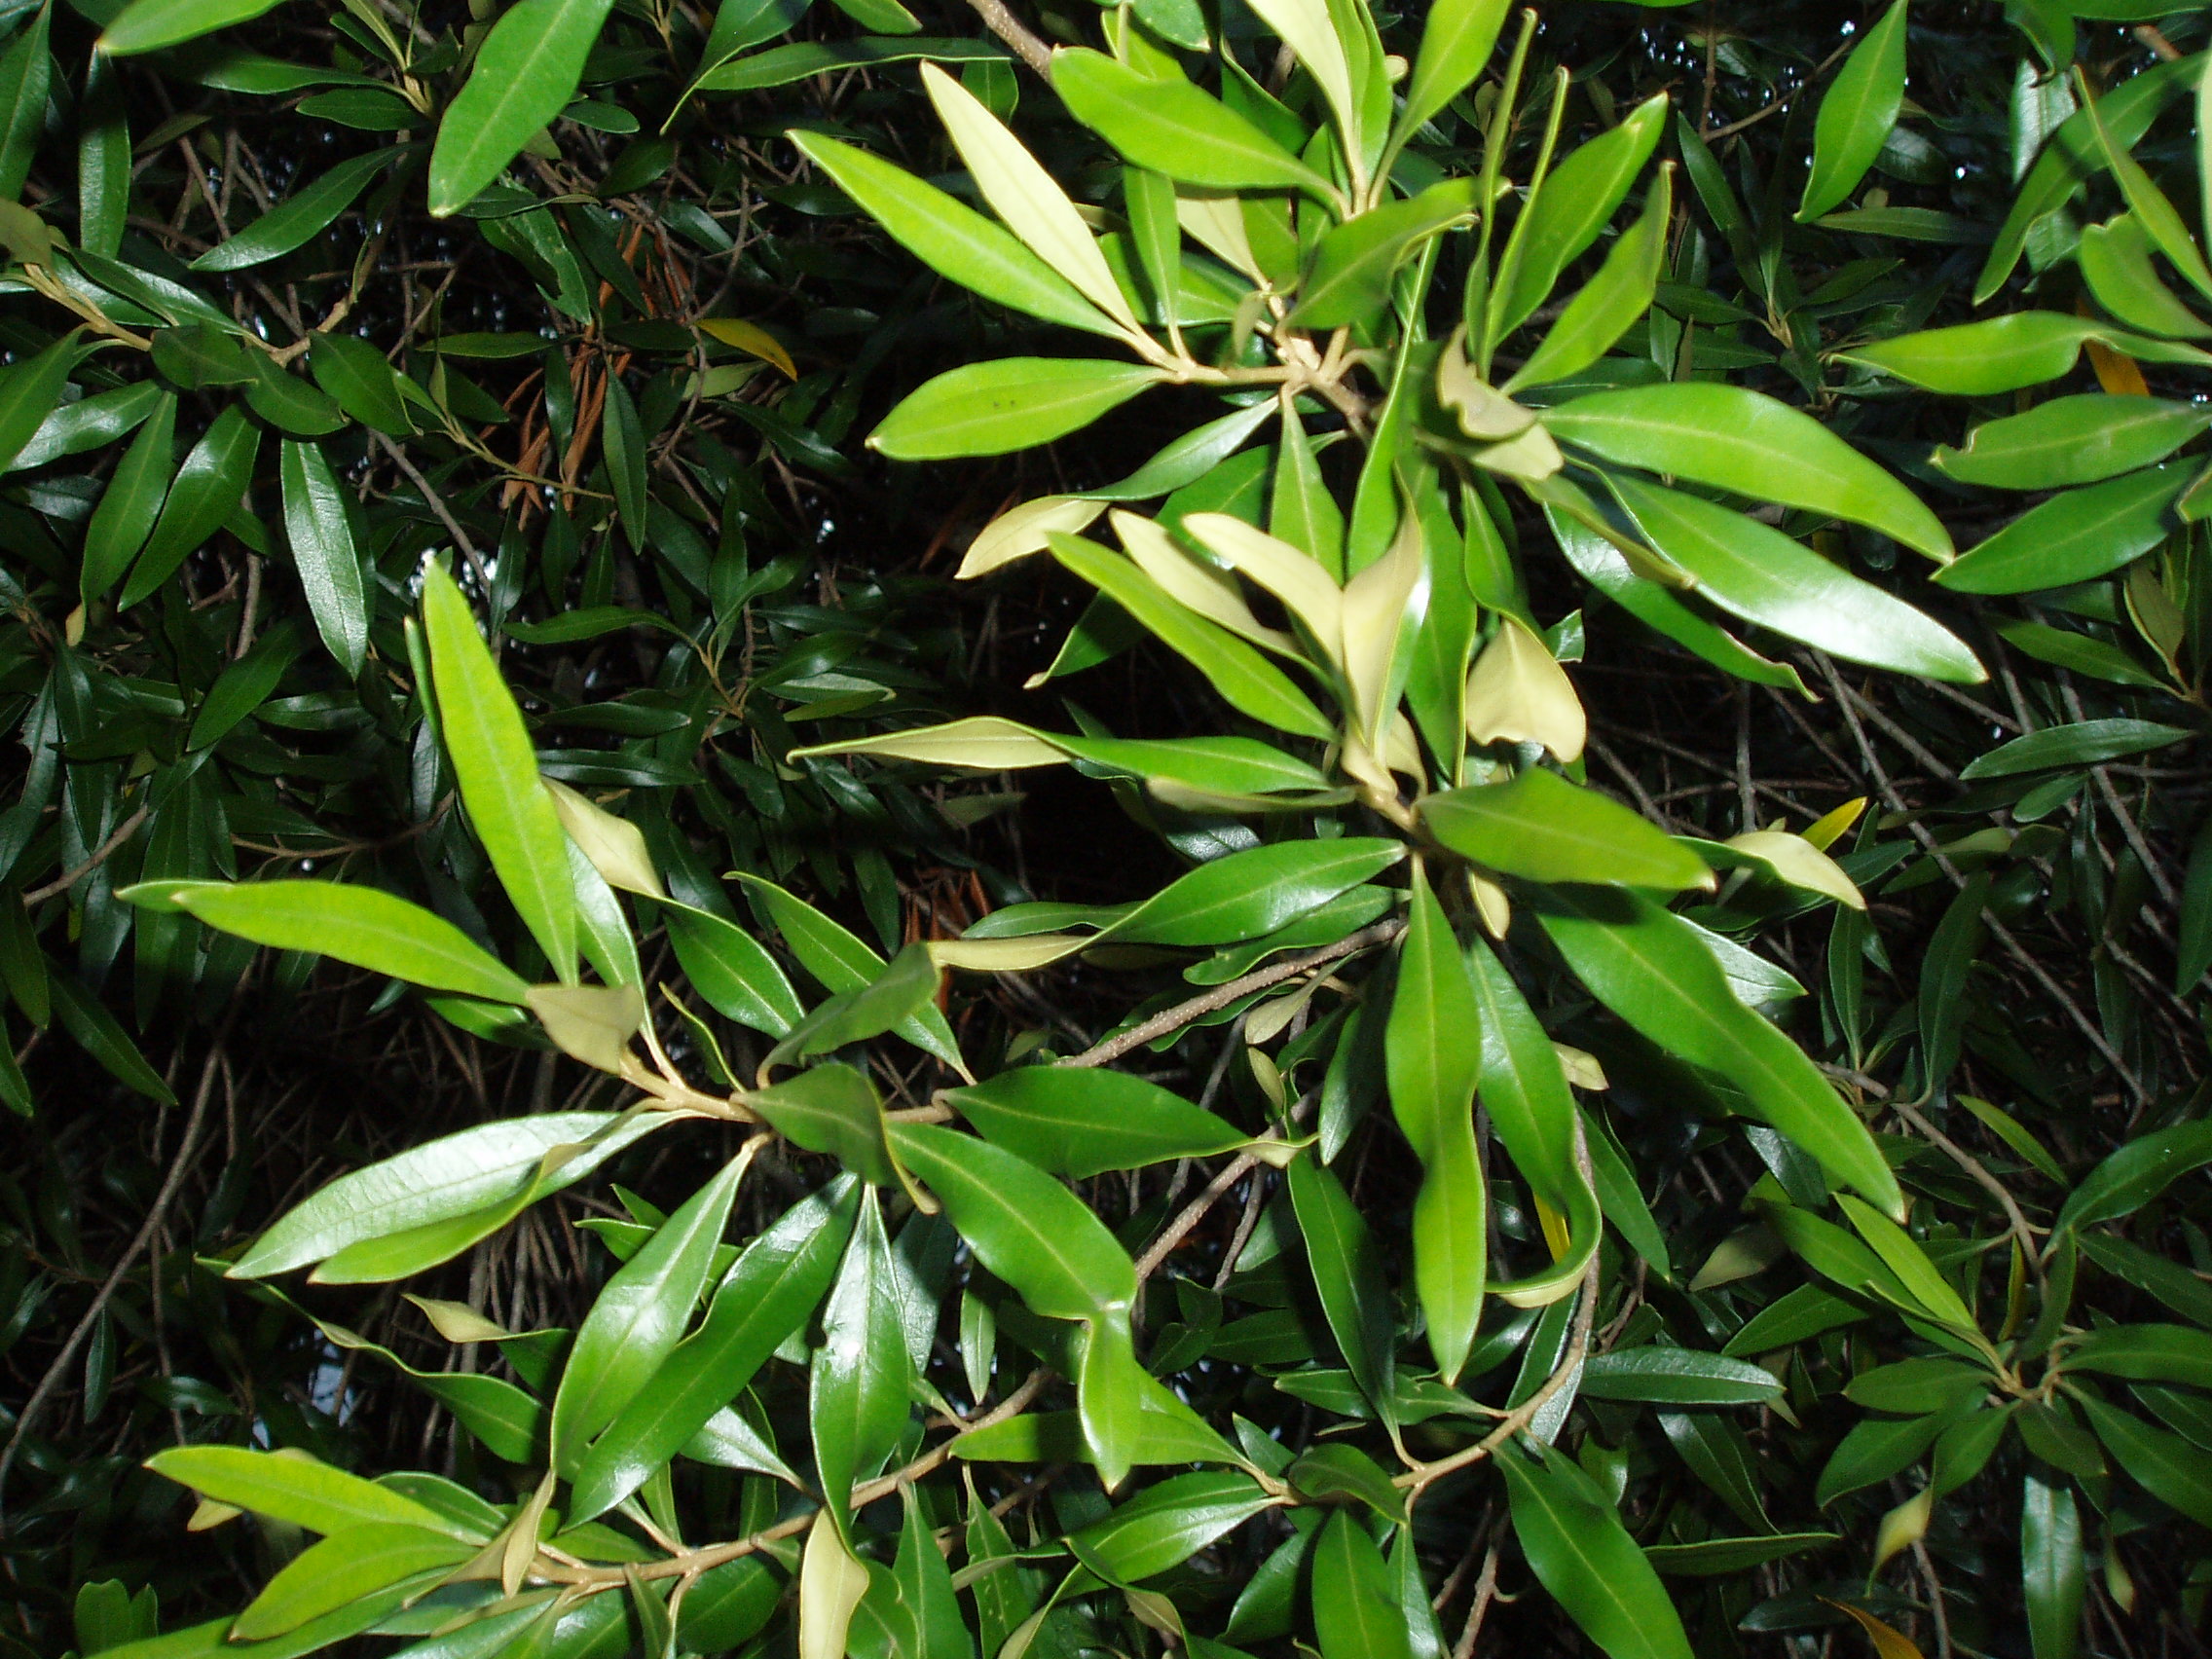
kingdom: Plantae
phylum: Tracheophyta
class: Magnoliopsida
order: Lamiales
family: Oleaceae
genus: Olea
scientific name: Olea europaea
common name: Olive
